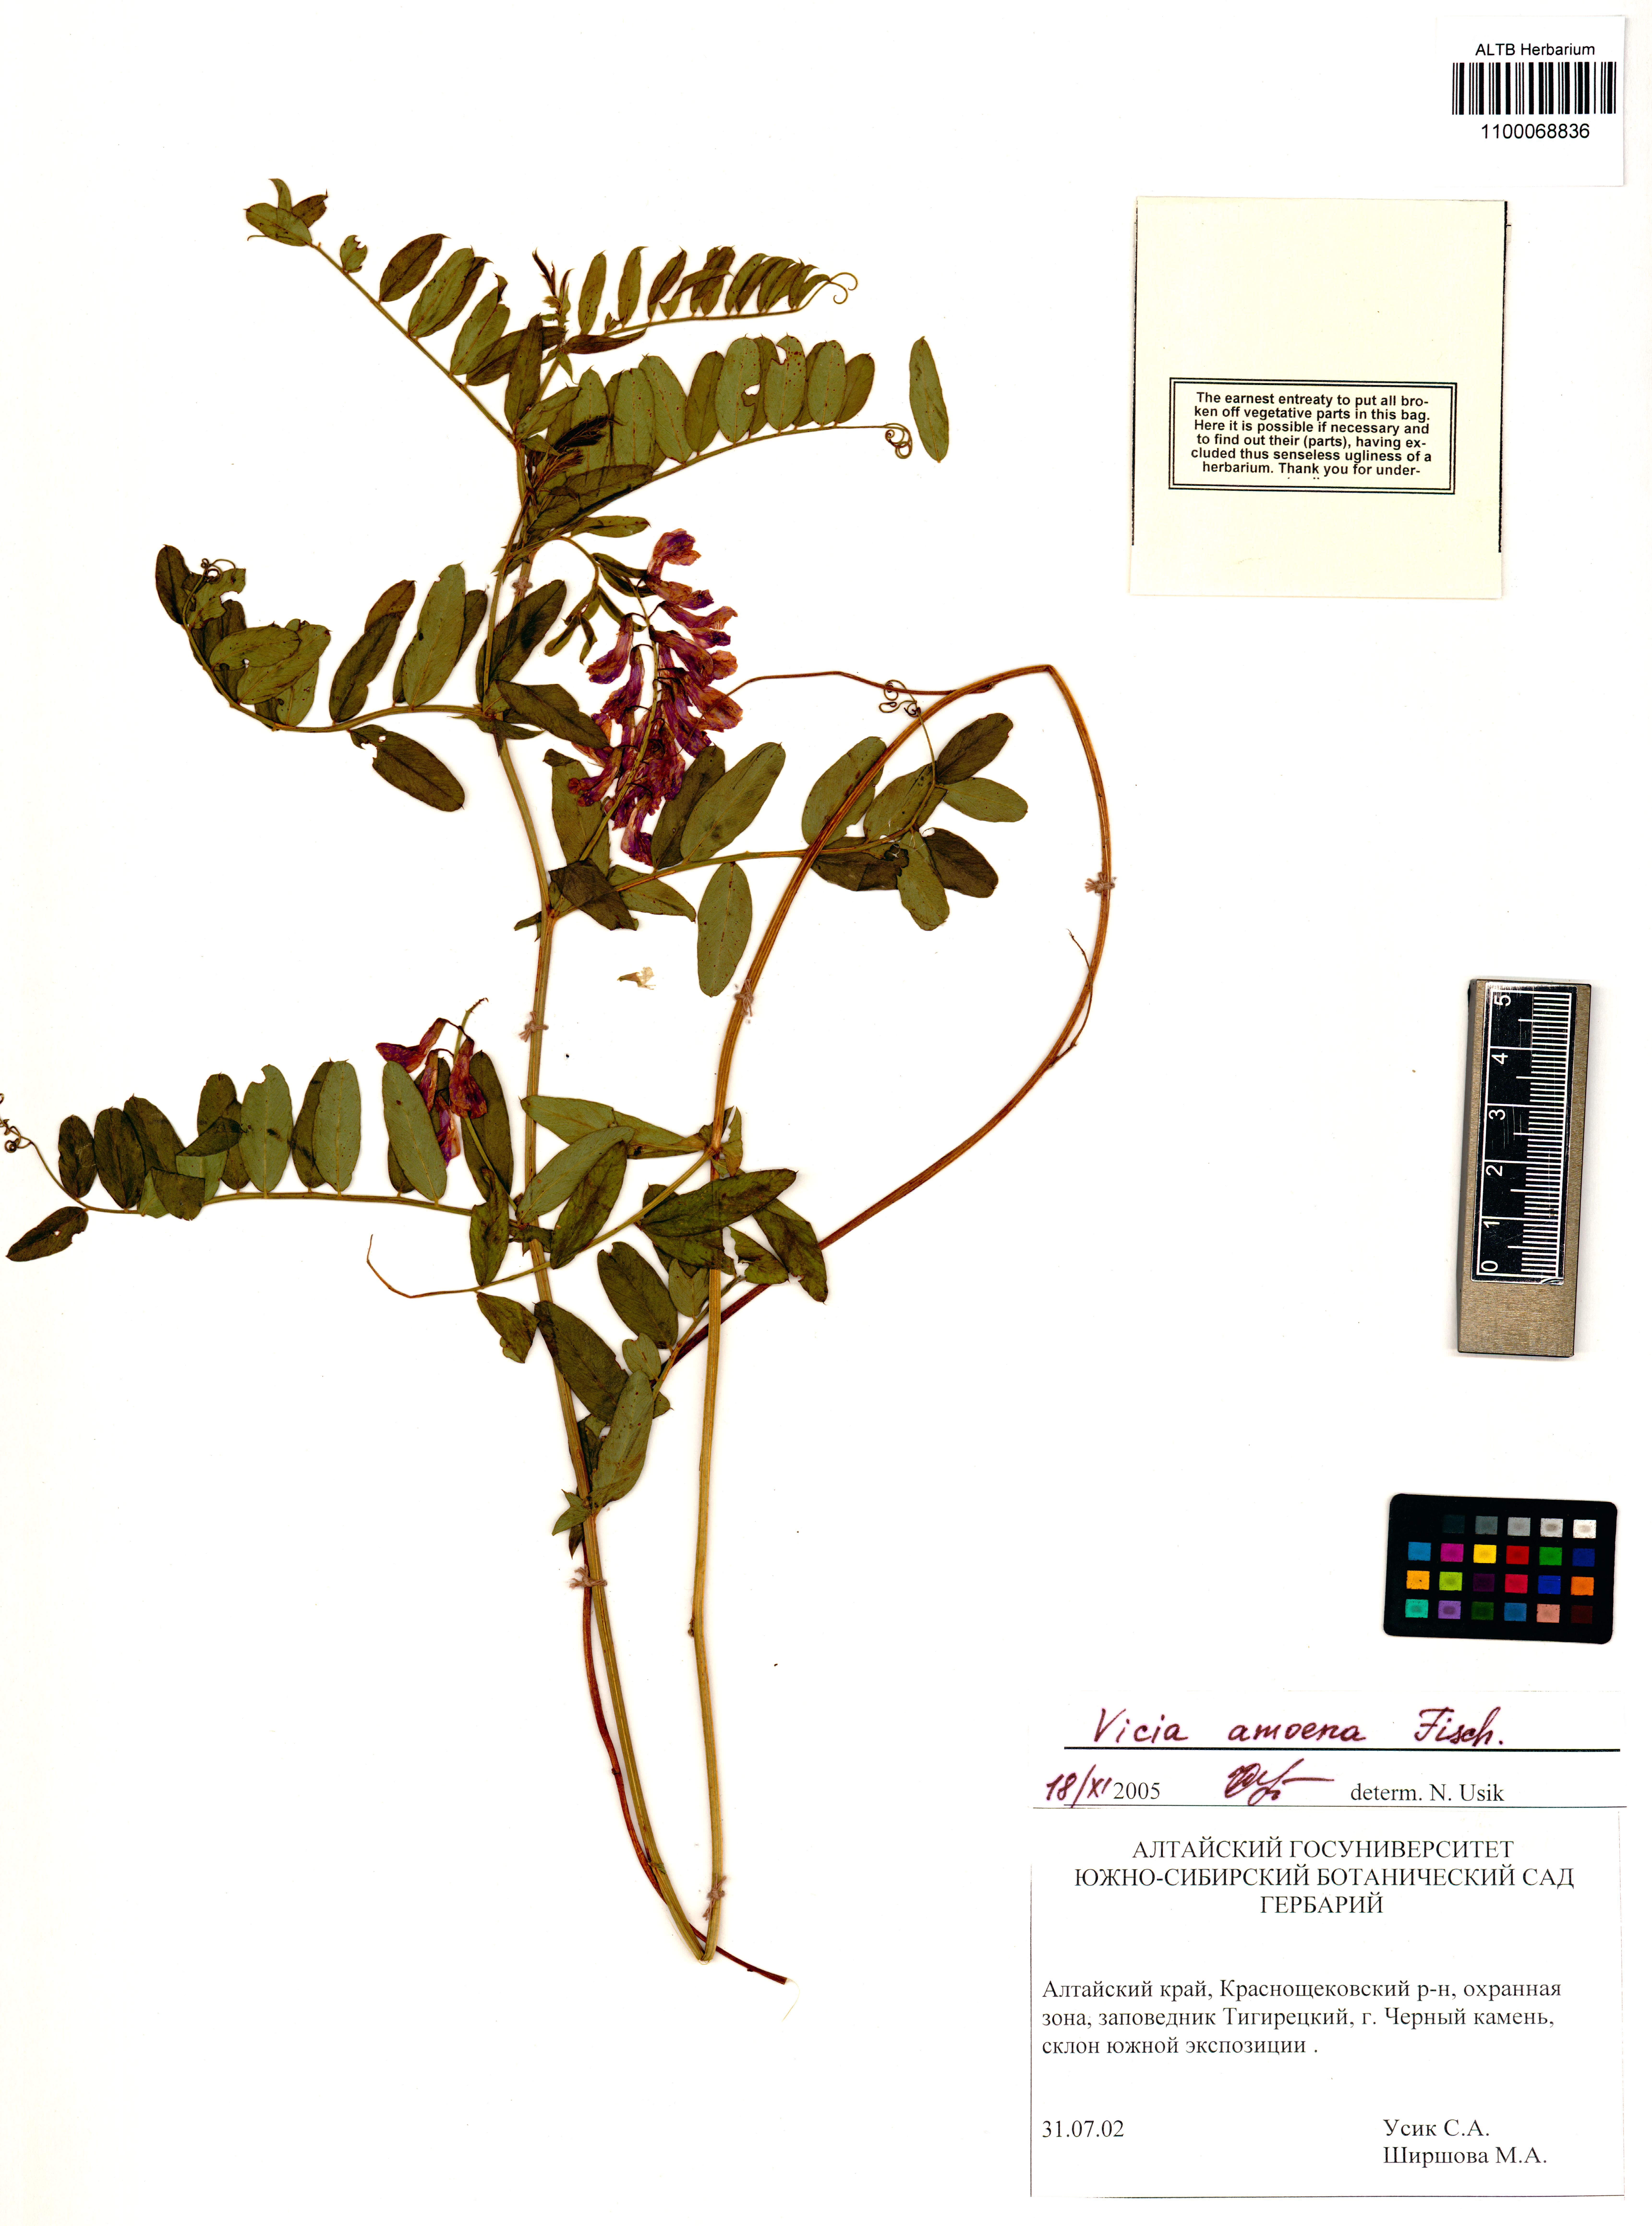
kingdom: Plantae
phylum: Tracheophyta
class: Magnoliopsida
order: Fabales
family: Fabaceae
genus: Vicia
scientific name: Vicia amoena
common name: Cheder ebs
